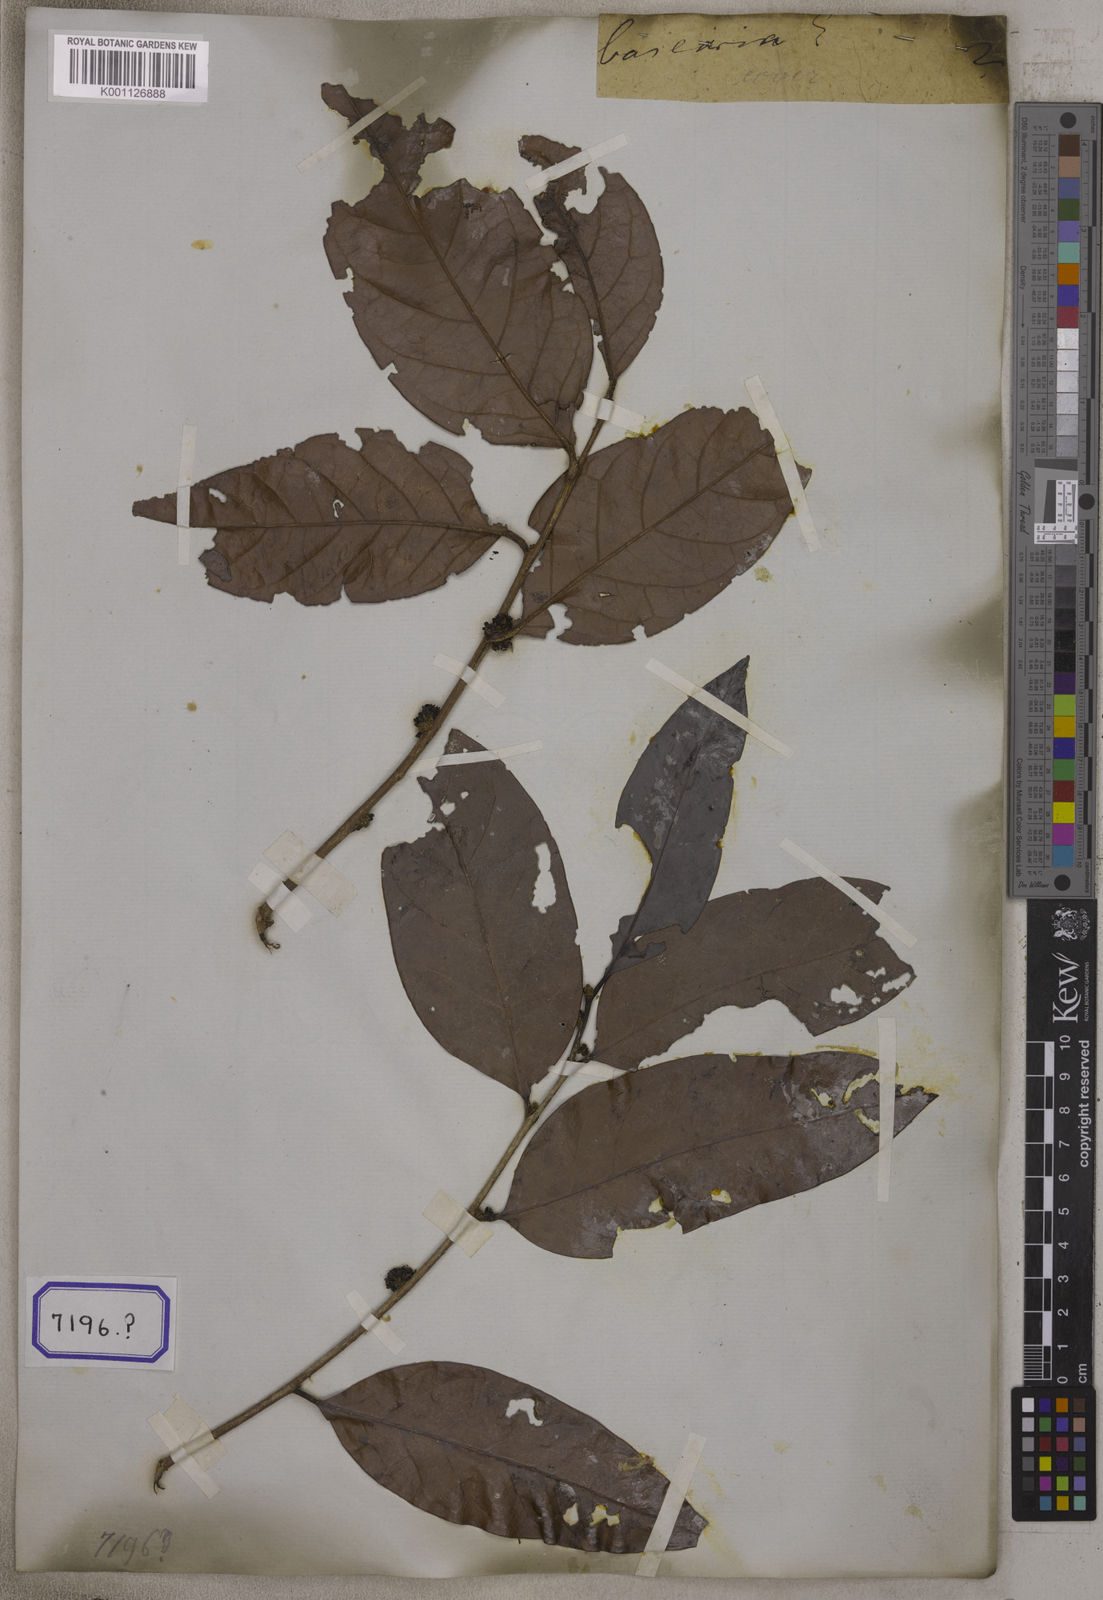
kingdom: Plantae
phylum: Tracheophyta
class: Magnoliopsida
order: Malpighiales
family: Salicaceae
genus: Casearia
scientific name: Casearia
